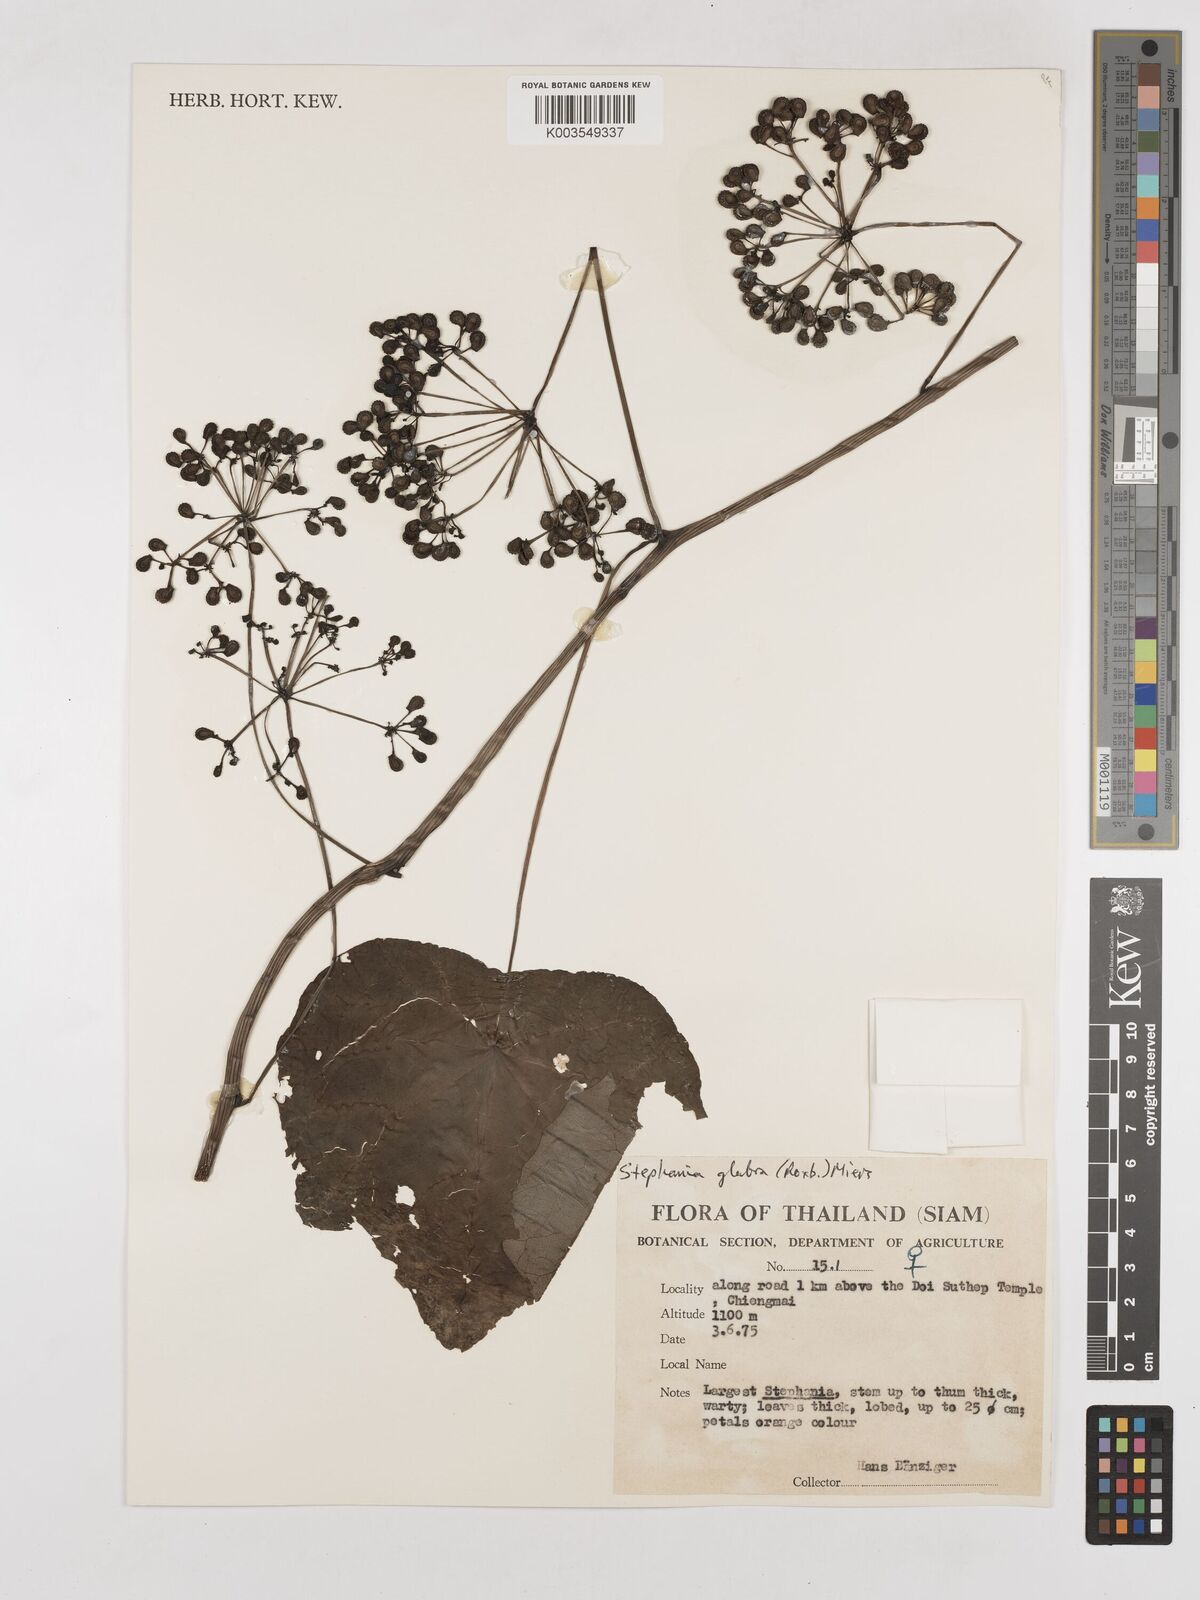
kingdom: Plantae
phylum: Tracheophyta
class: Magnoliopsida
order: Ranunculales
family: Menispermaceae
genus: Stephania
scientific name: Stephania rotunda
